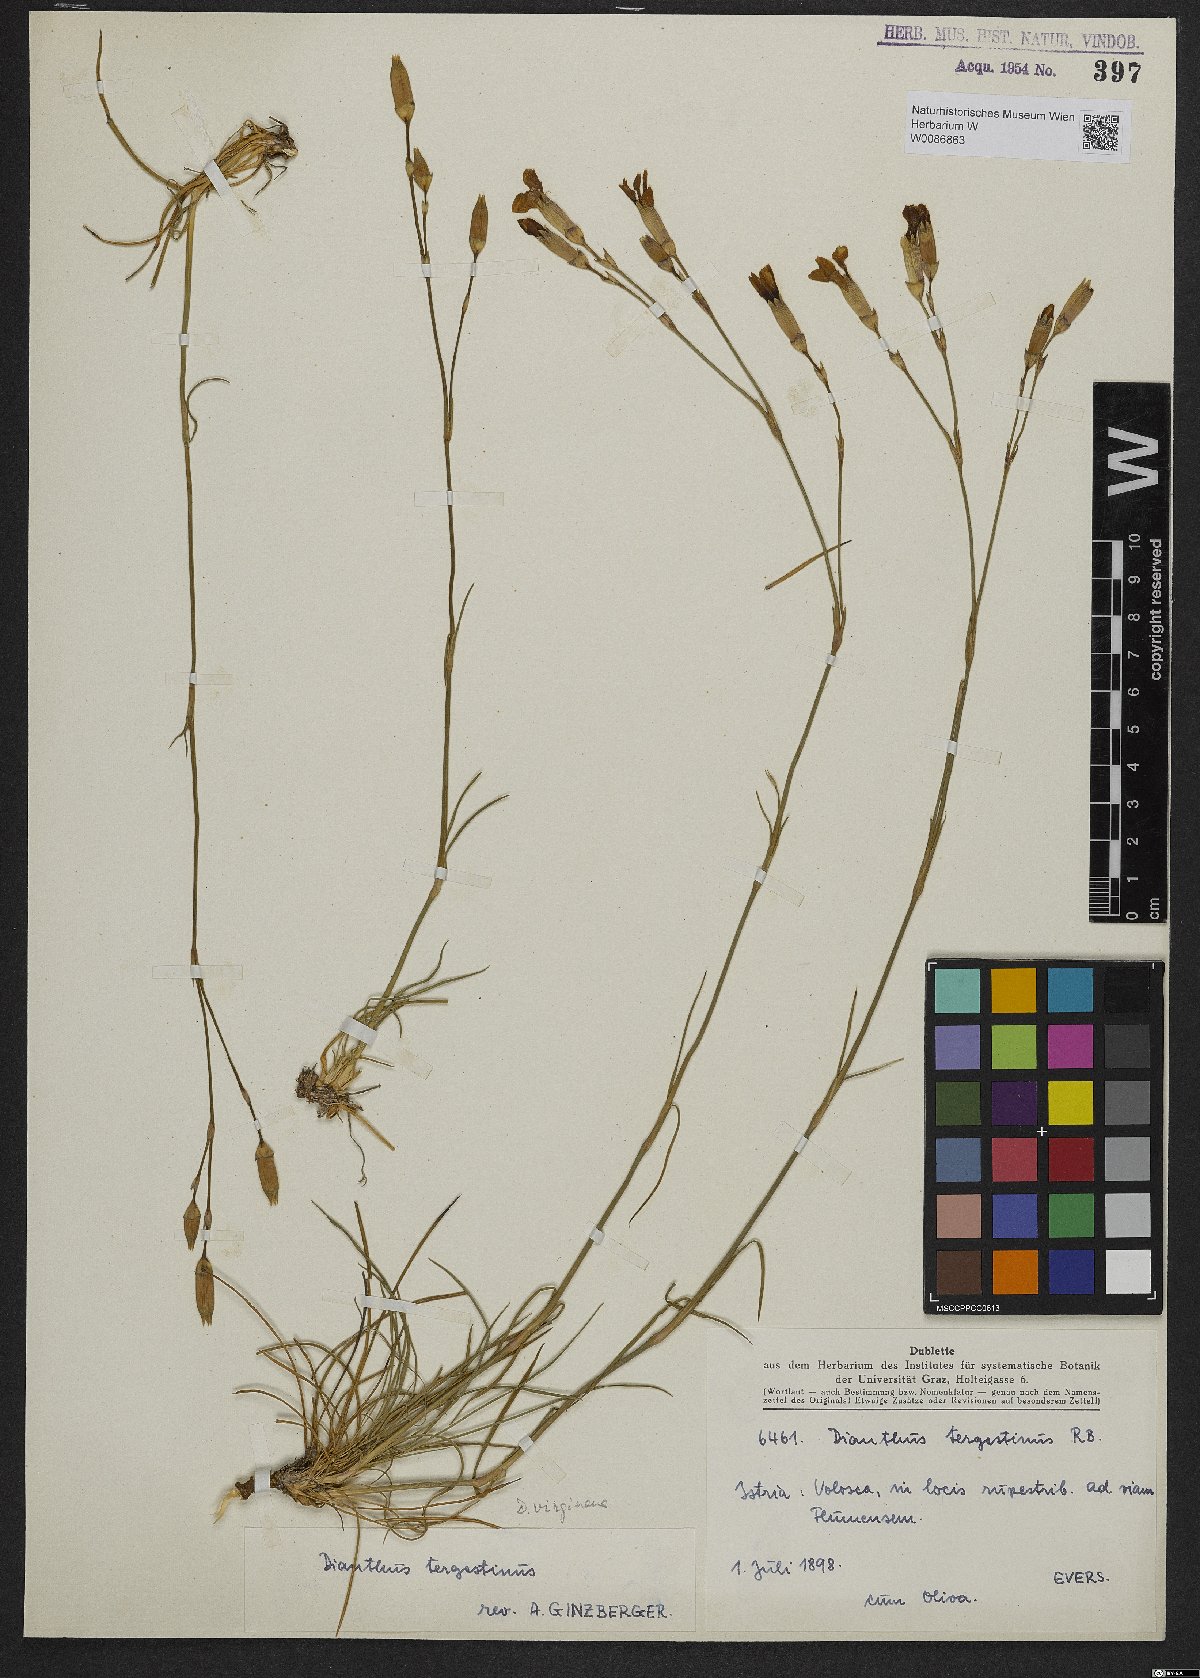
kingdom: Plantae
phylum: Tracheophyta
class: Magnoliopsida
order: Caryophyllales
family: Caryophyllaceae
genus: Dianthus
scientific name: Dianthus sylvestris
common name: Wood pink
